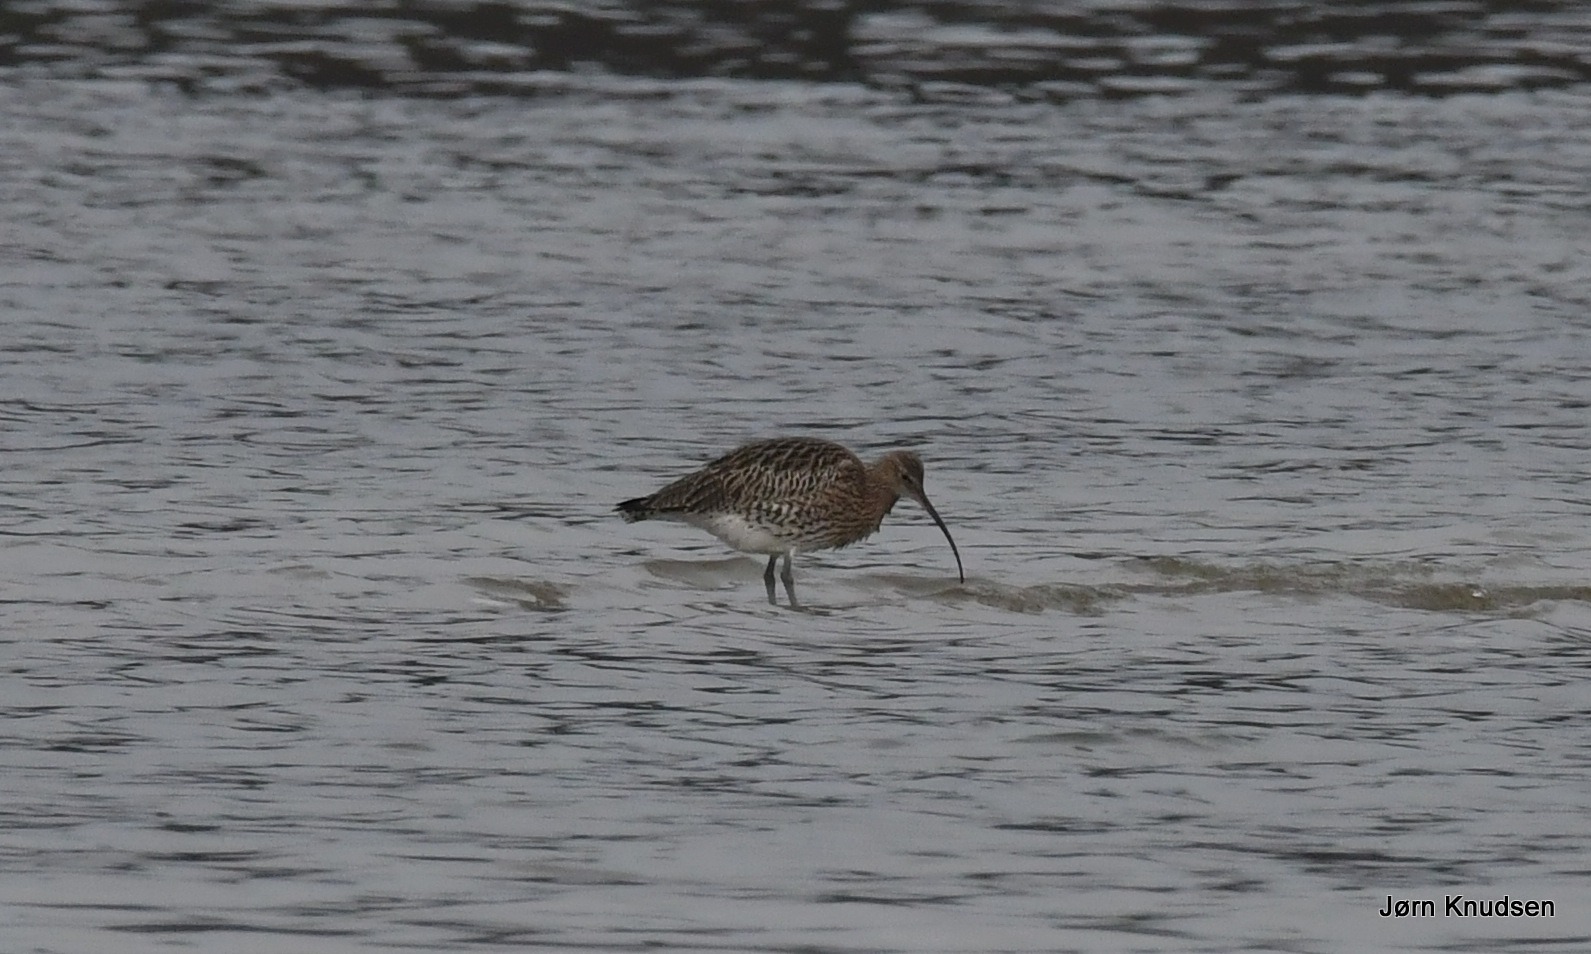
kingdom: Animalia
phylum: Chordata
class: Aves
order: Charadriiformes
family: Scolopacidae
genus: Numenius
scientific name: Numenius arquata
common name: Storspove
